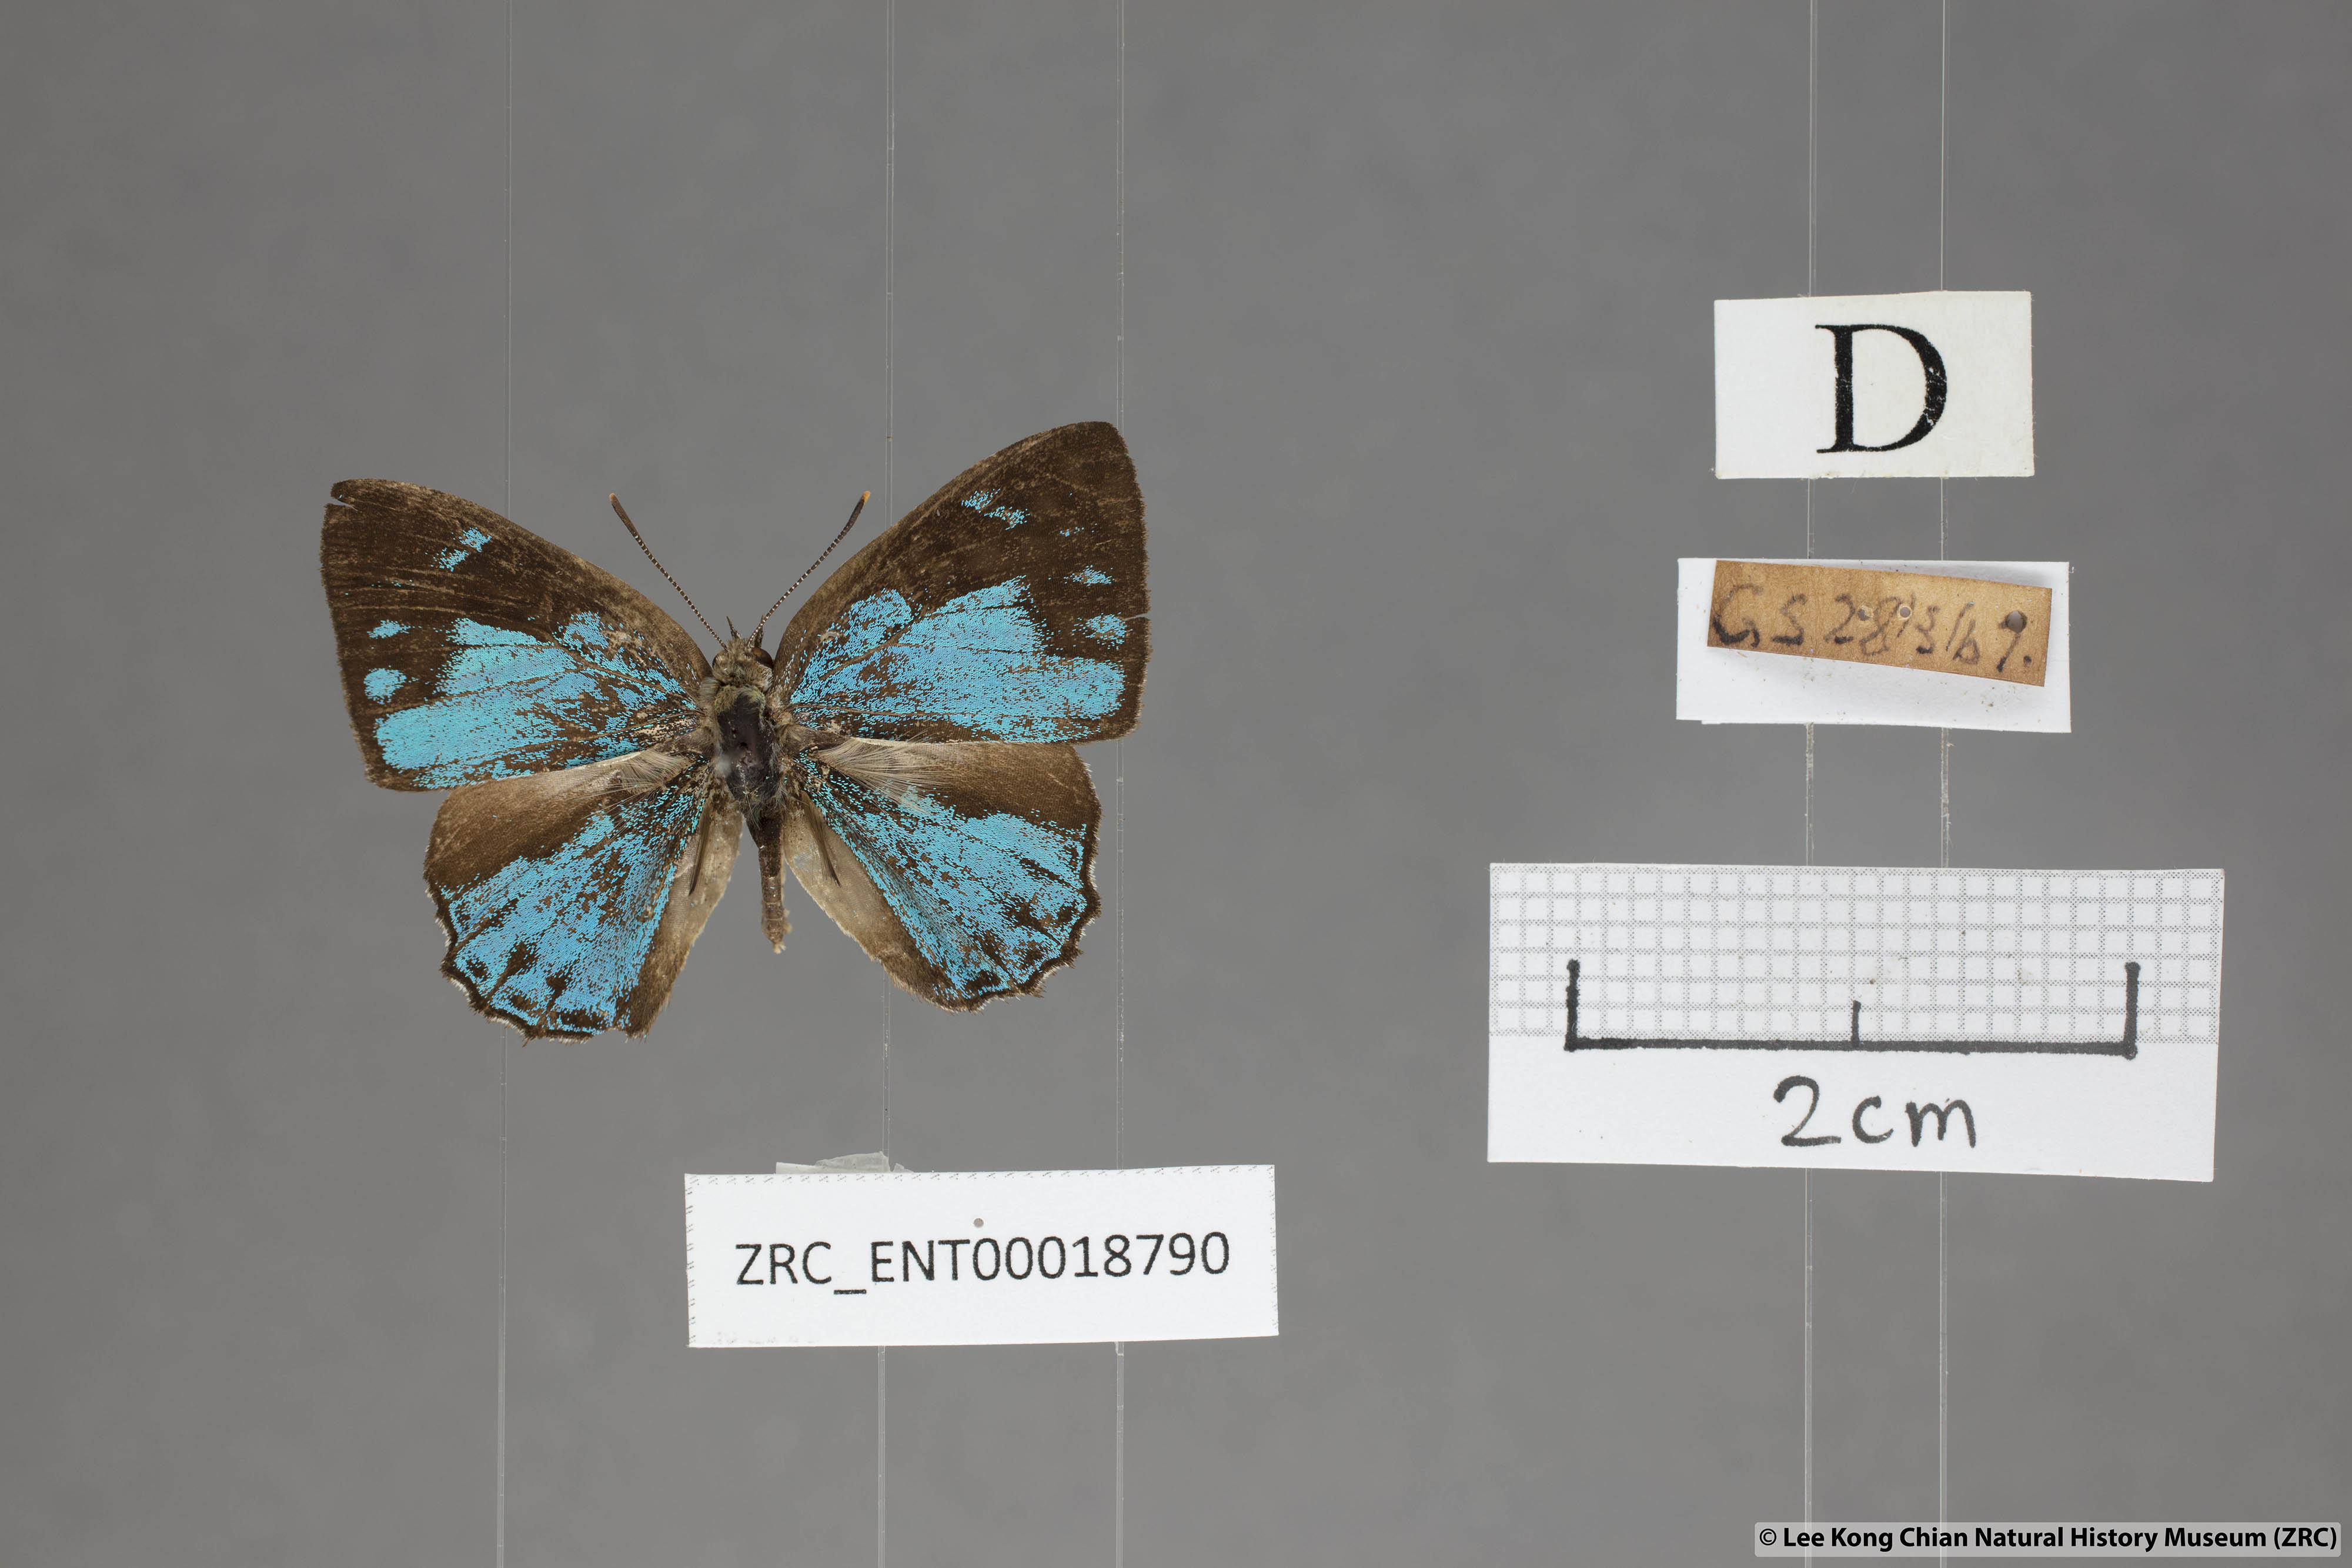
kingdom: Animalia
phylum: Arthropoda
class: Insecta
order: Lepidoptera
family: Lycaenidae
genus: Poritia
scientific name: Poritia pleurata
